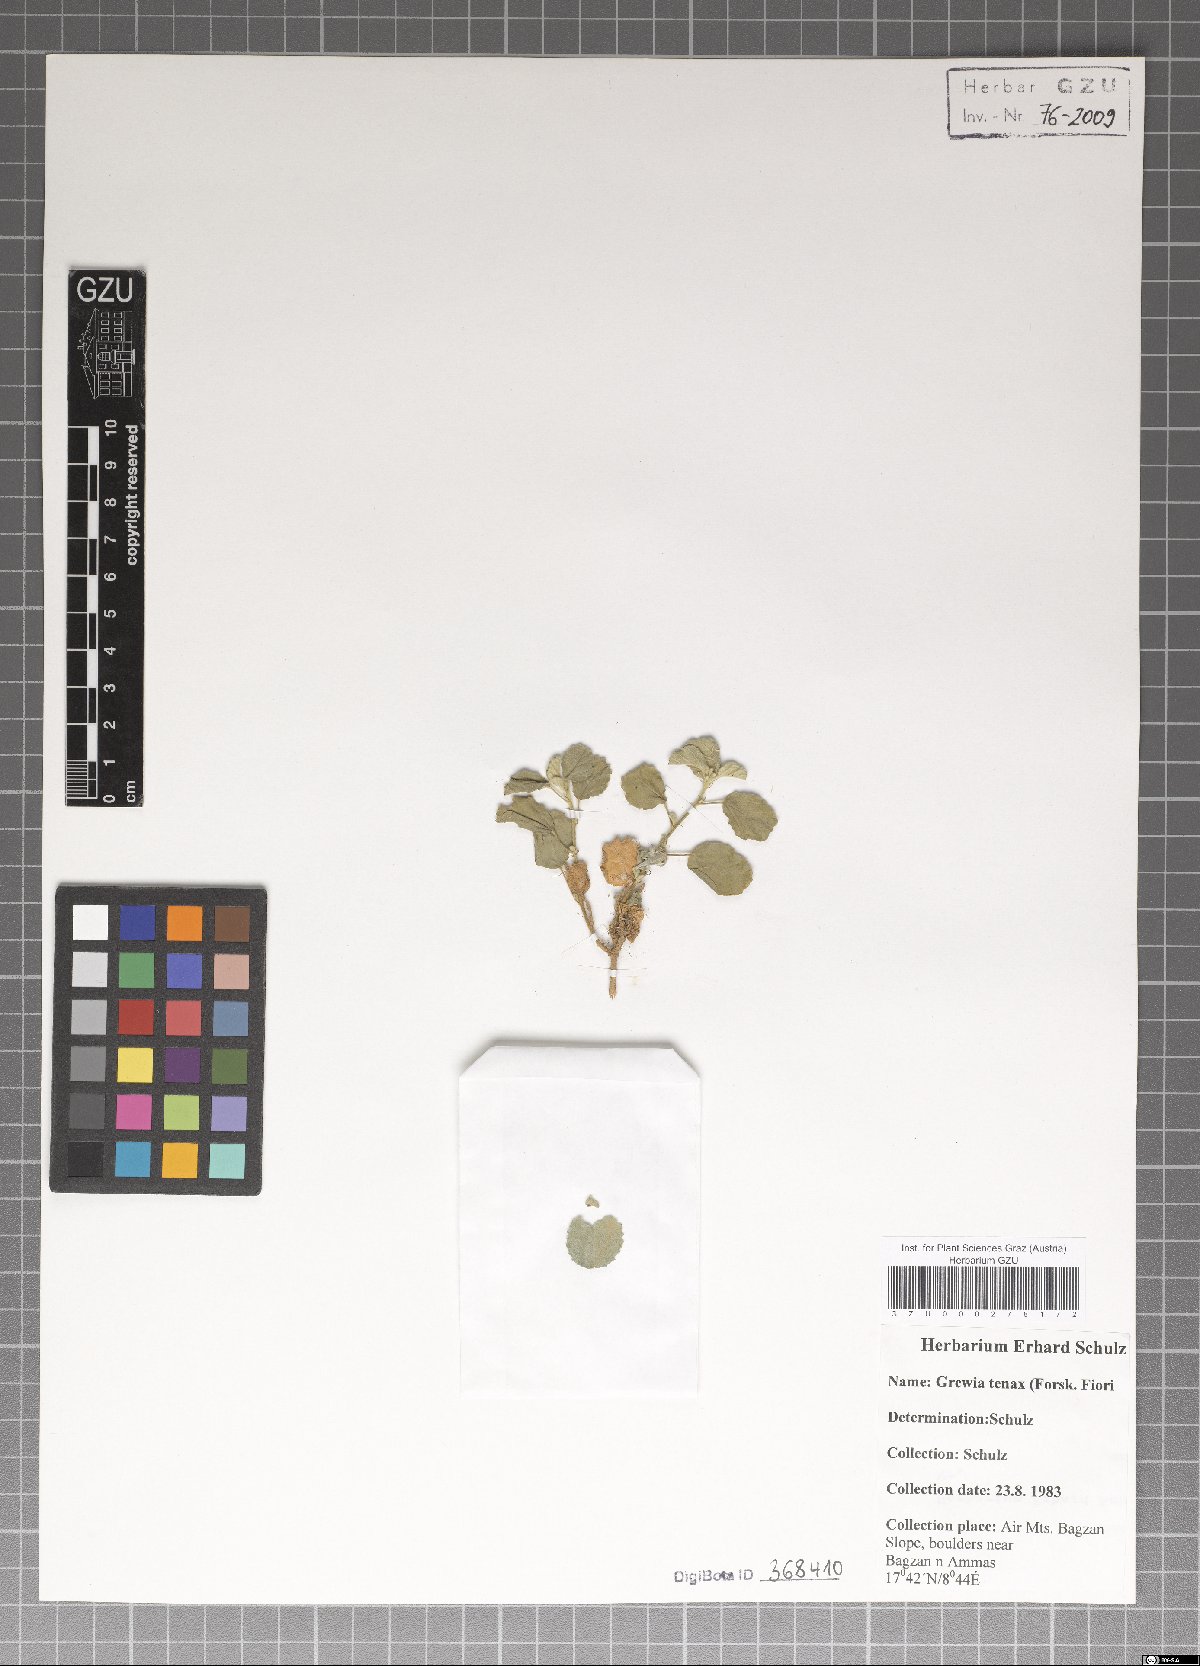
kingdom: Plantae
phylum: Tracheophyta
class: Magnoliopsida
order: Malvales
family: Malvaceae
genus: Grewia
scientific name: Grewia tenax
